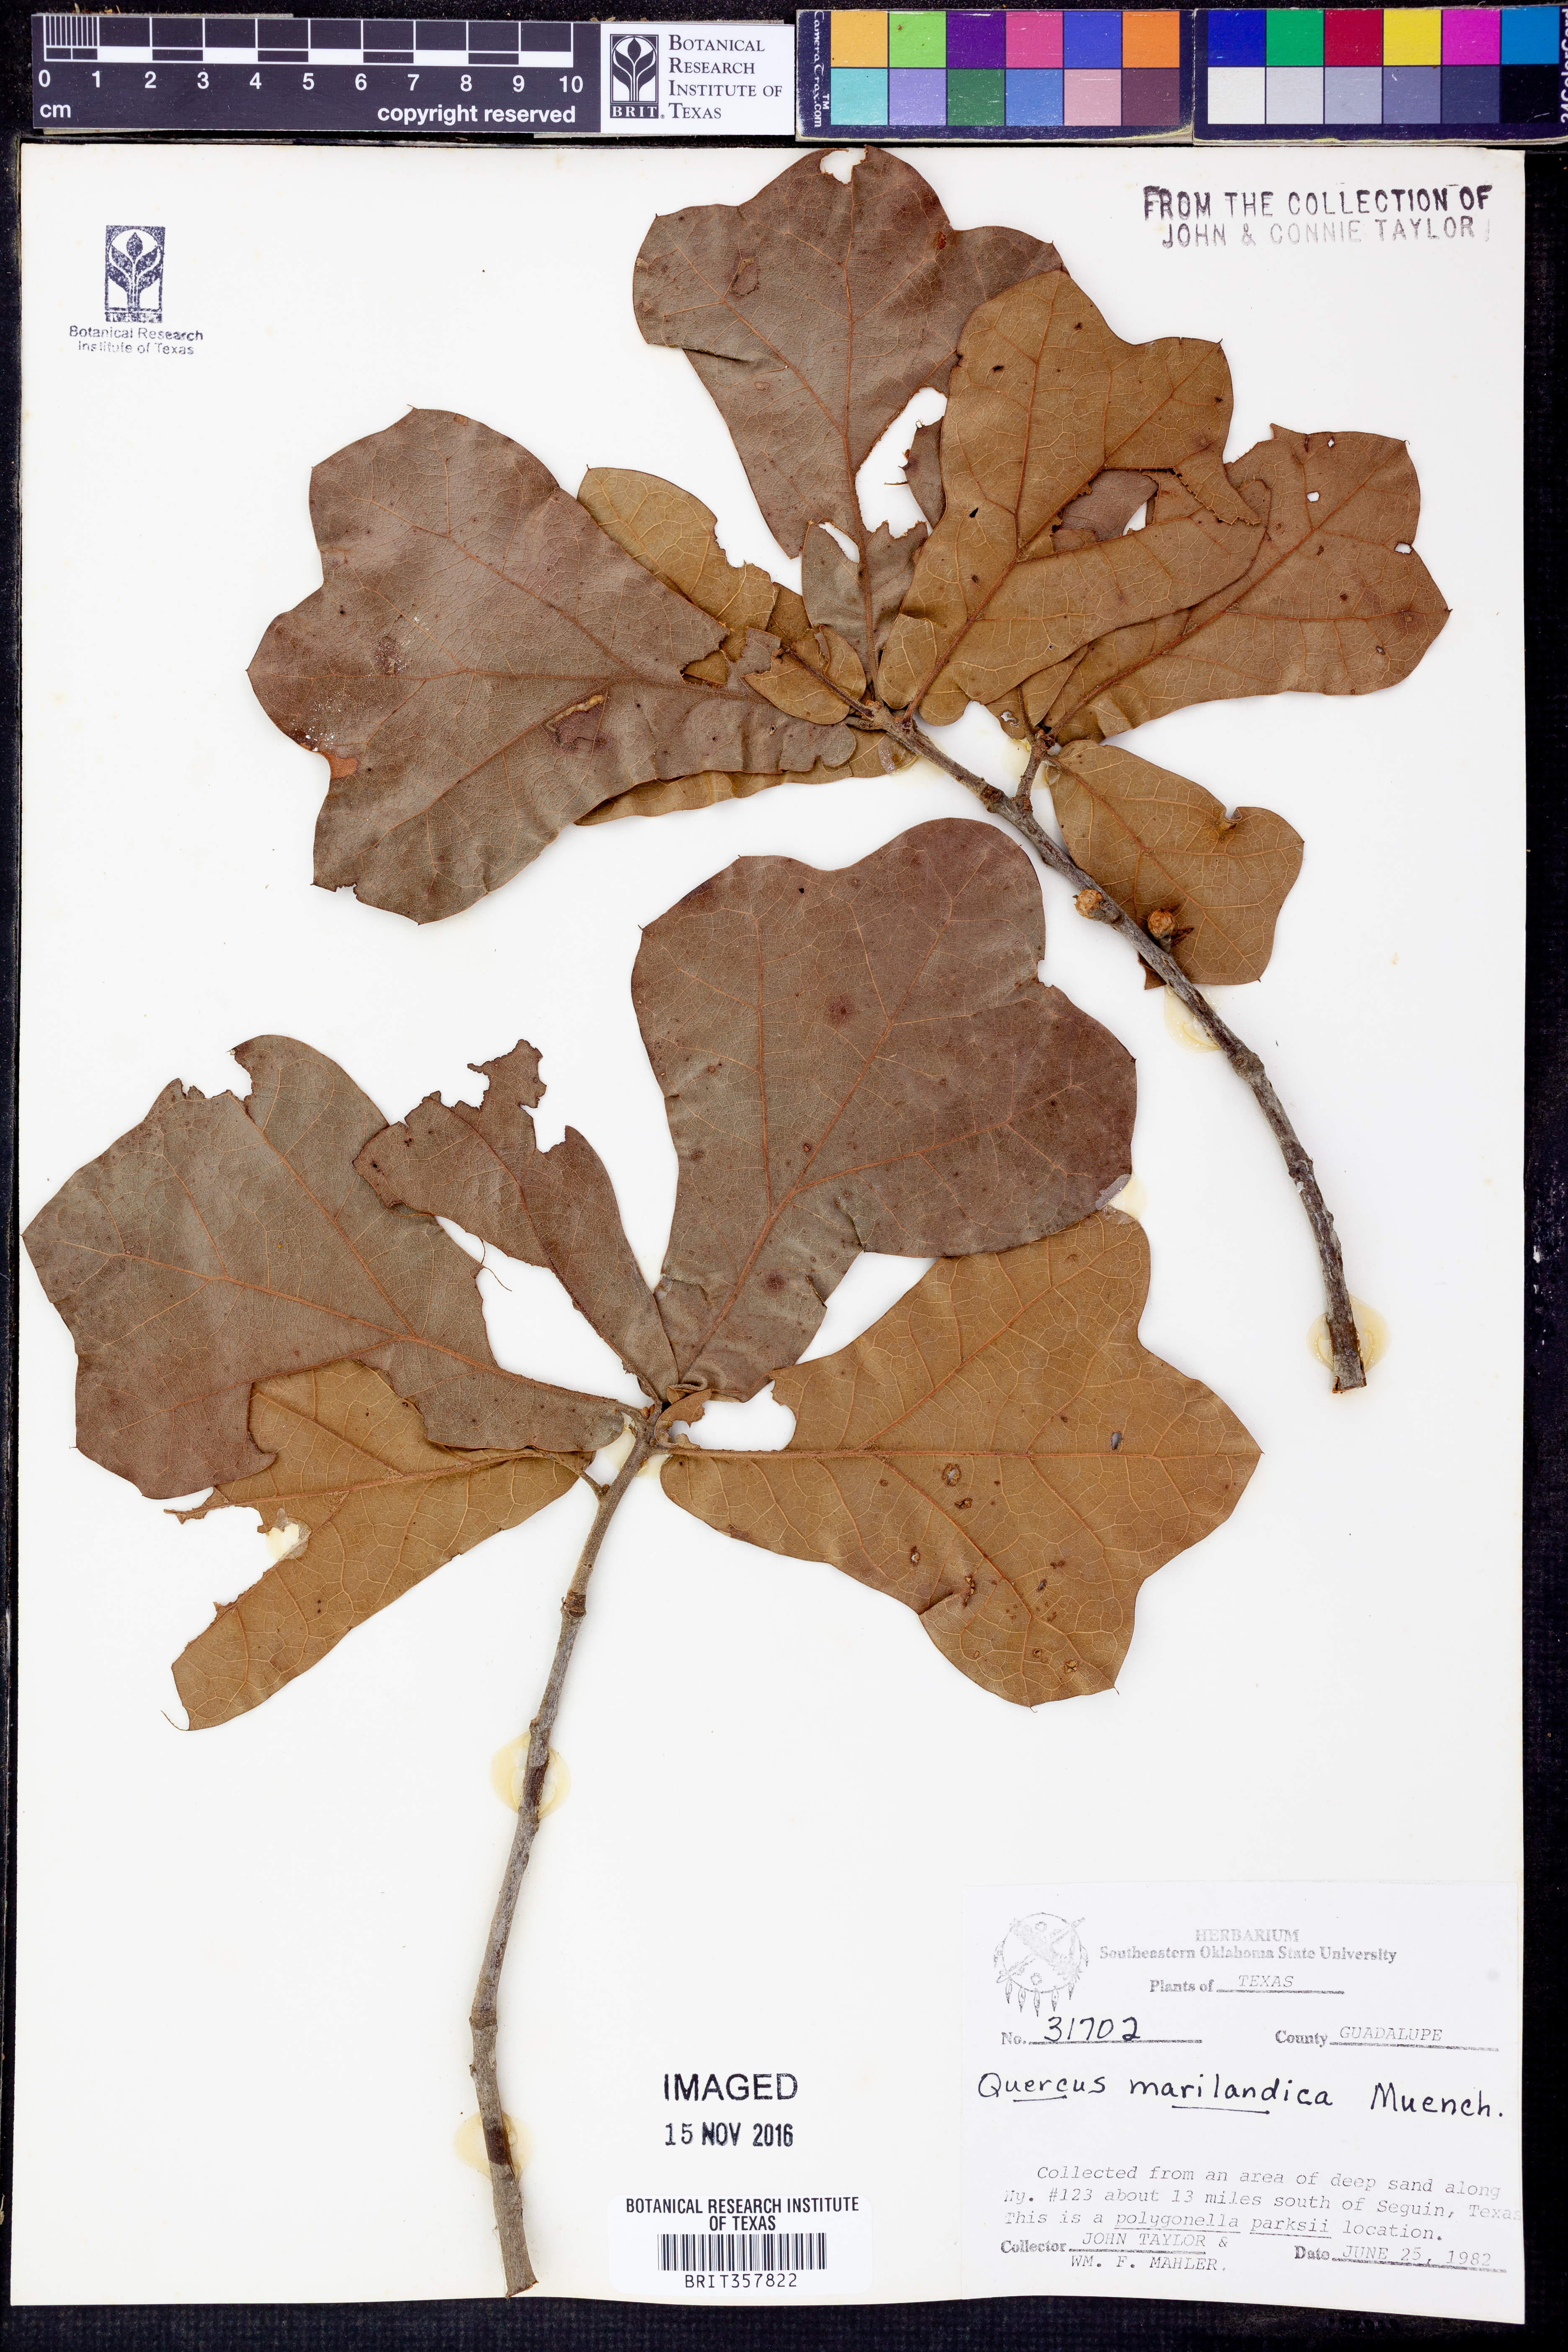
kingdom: Plantae
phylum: Tracheophyta
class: Magnoliopsida
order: Fagales
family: Fagaceae
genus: Quercus
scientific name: Quercus marilandica
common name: Blackjack oak
